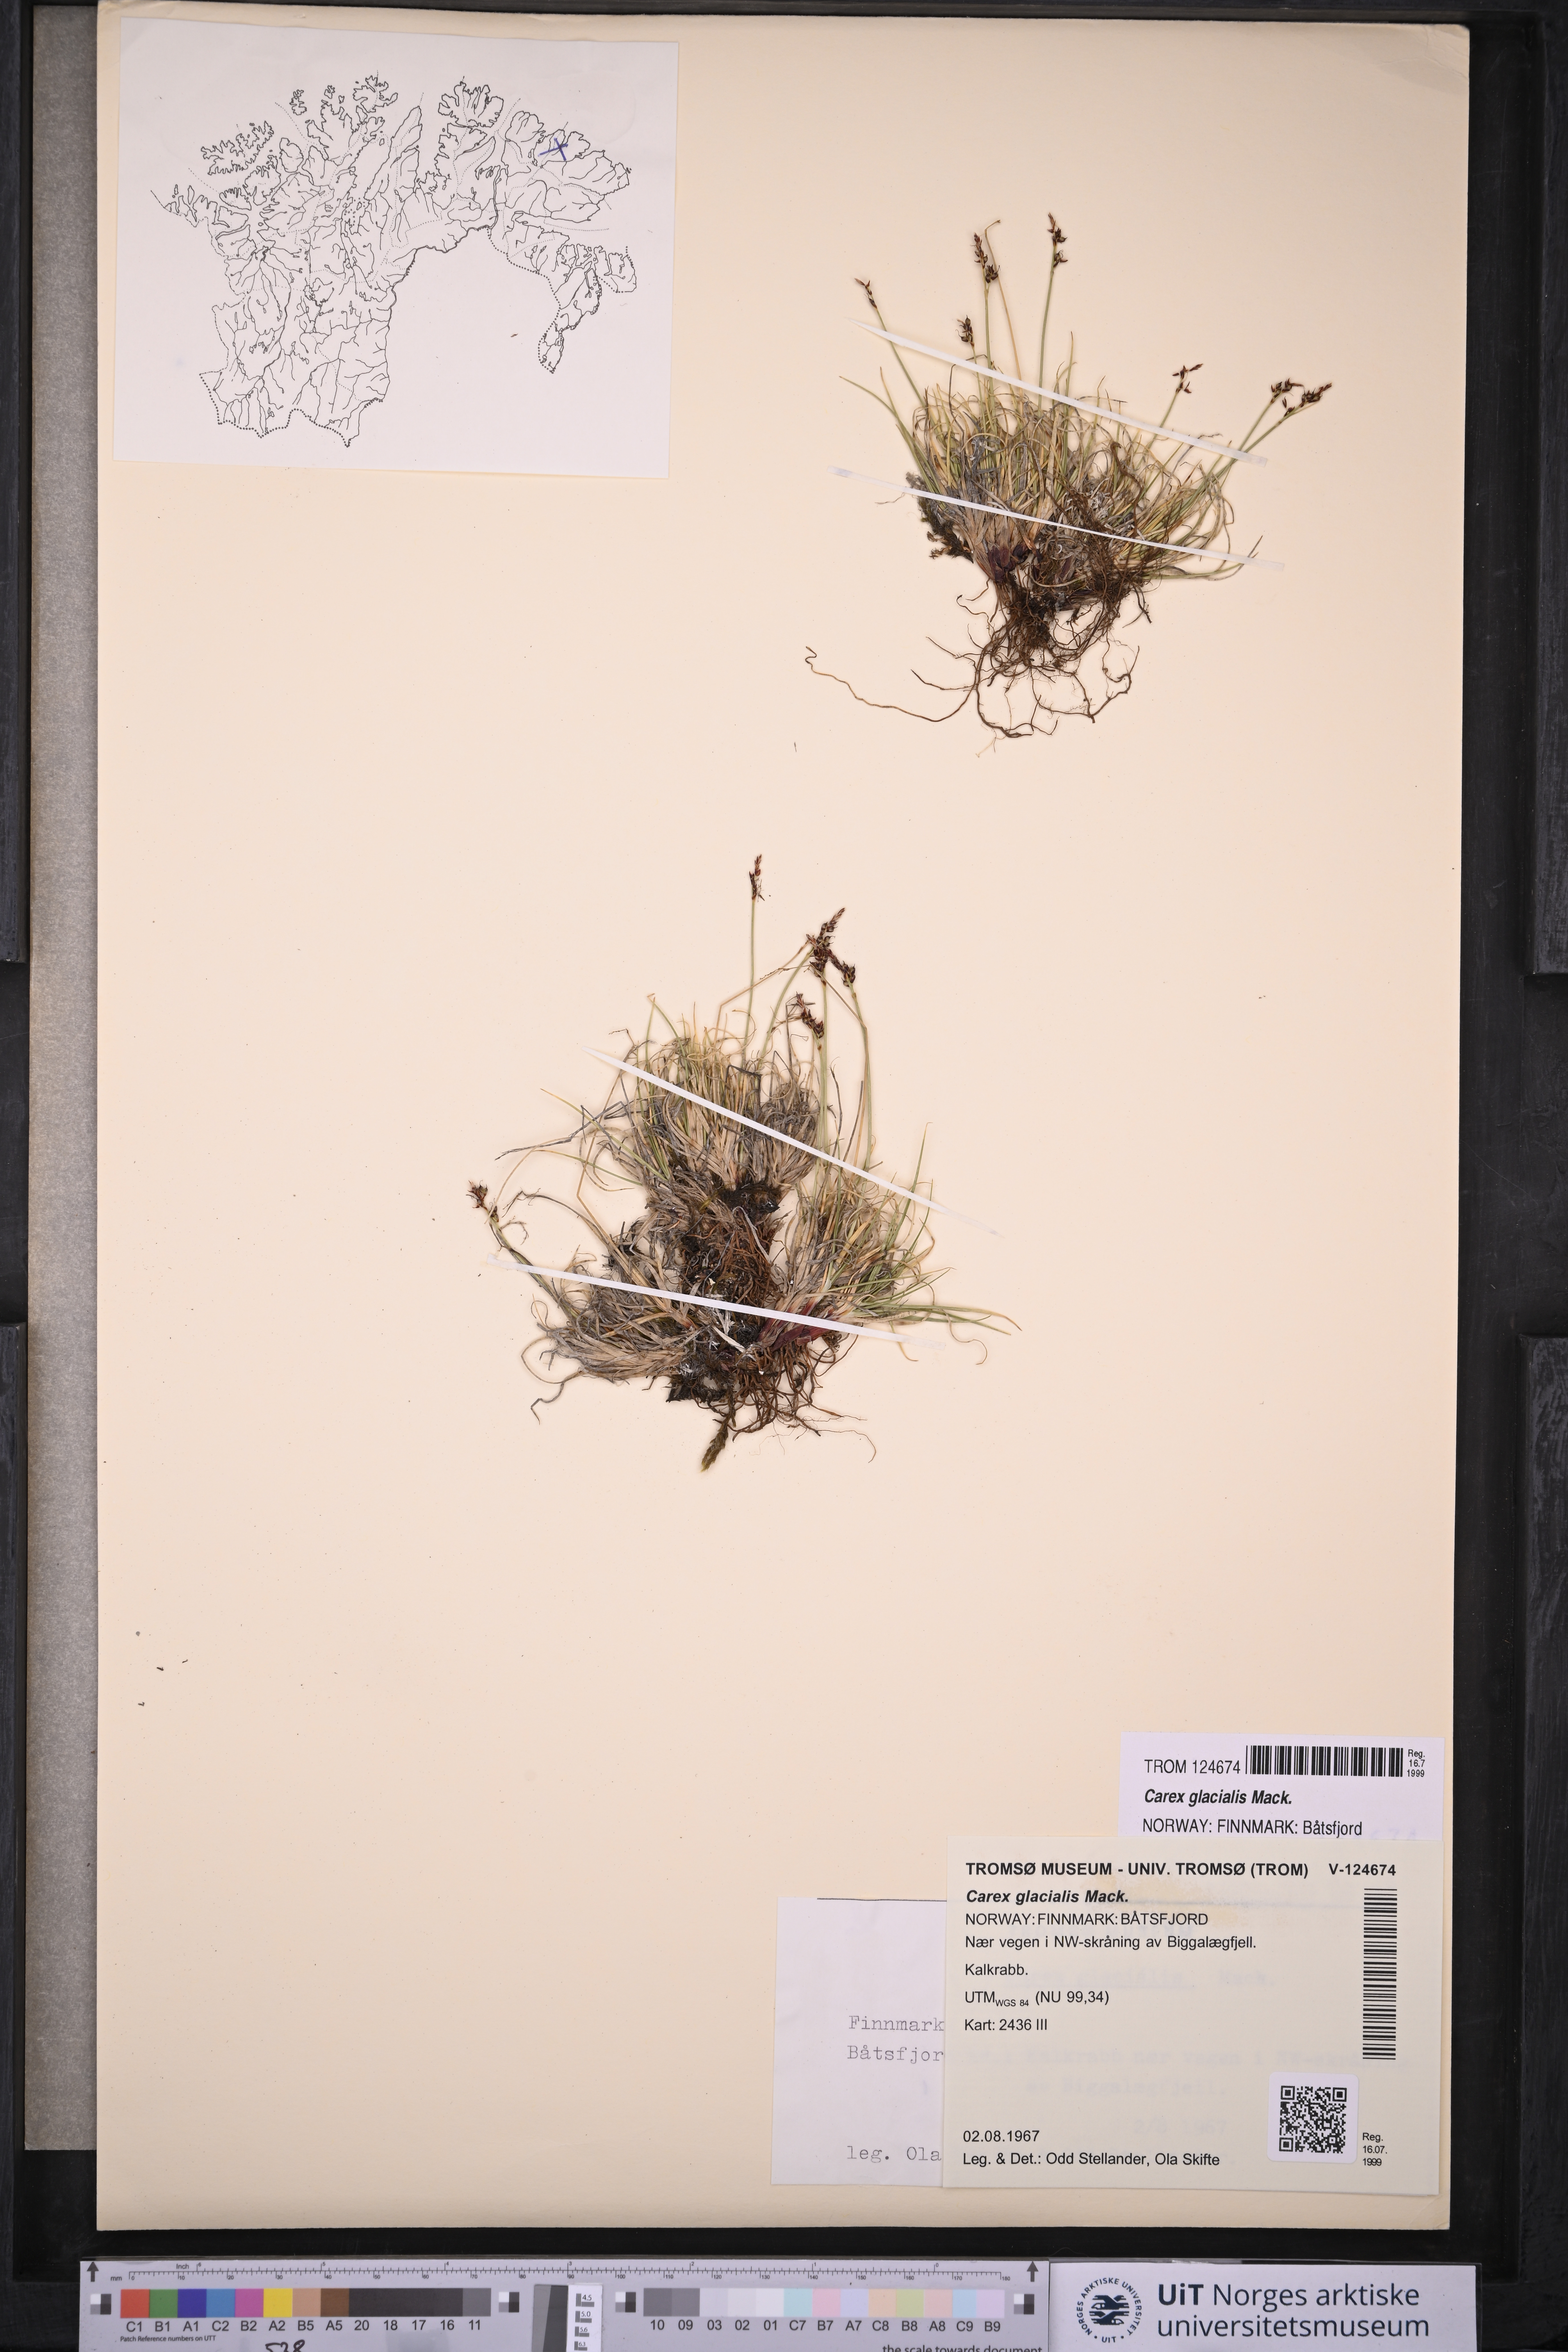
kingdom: Plantae
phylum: Tracheophyta
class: Liliopsida
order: Poales
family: Cyperaceae
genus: Carex
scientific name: Carex glacialis
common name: Newfoundland sedge
